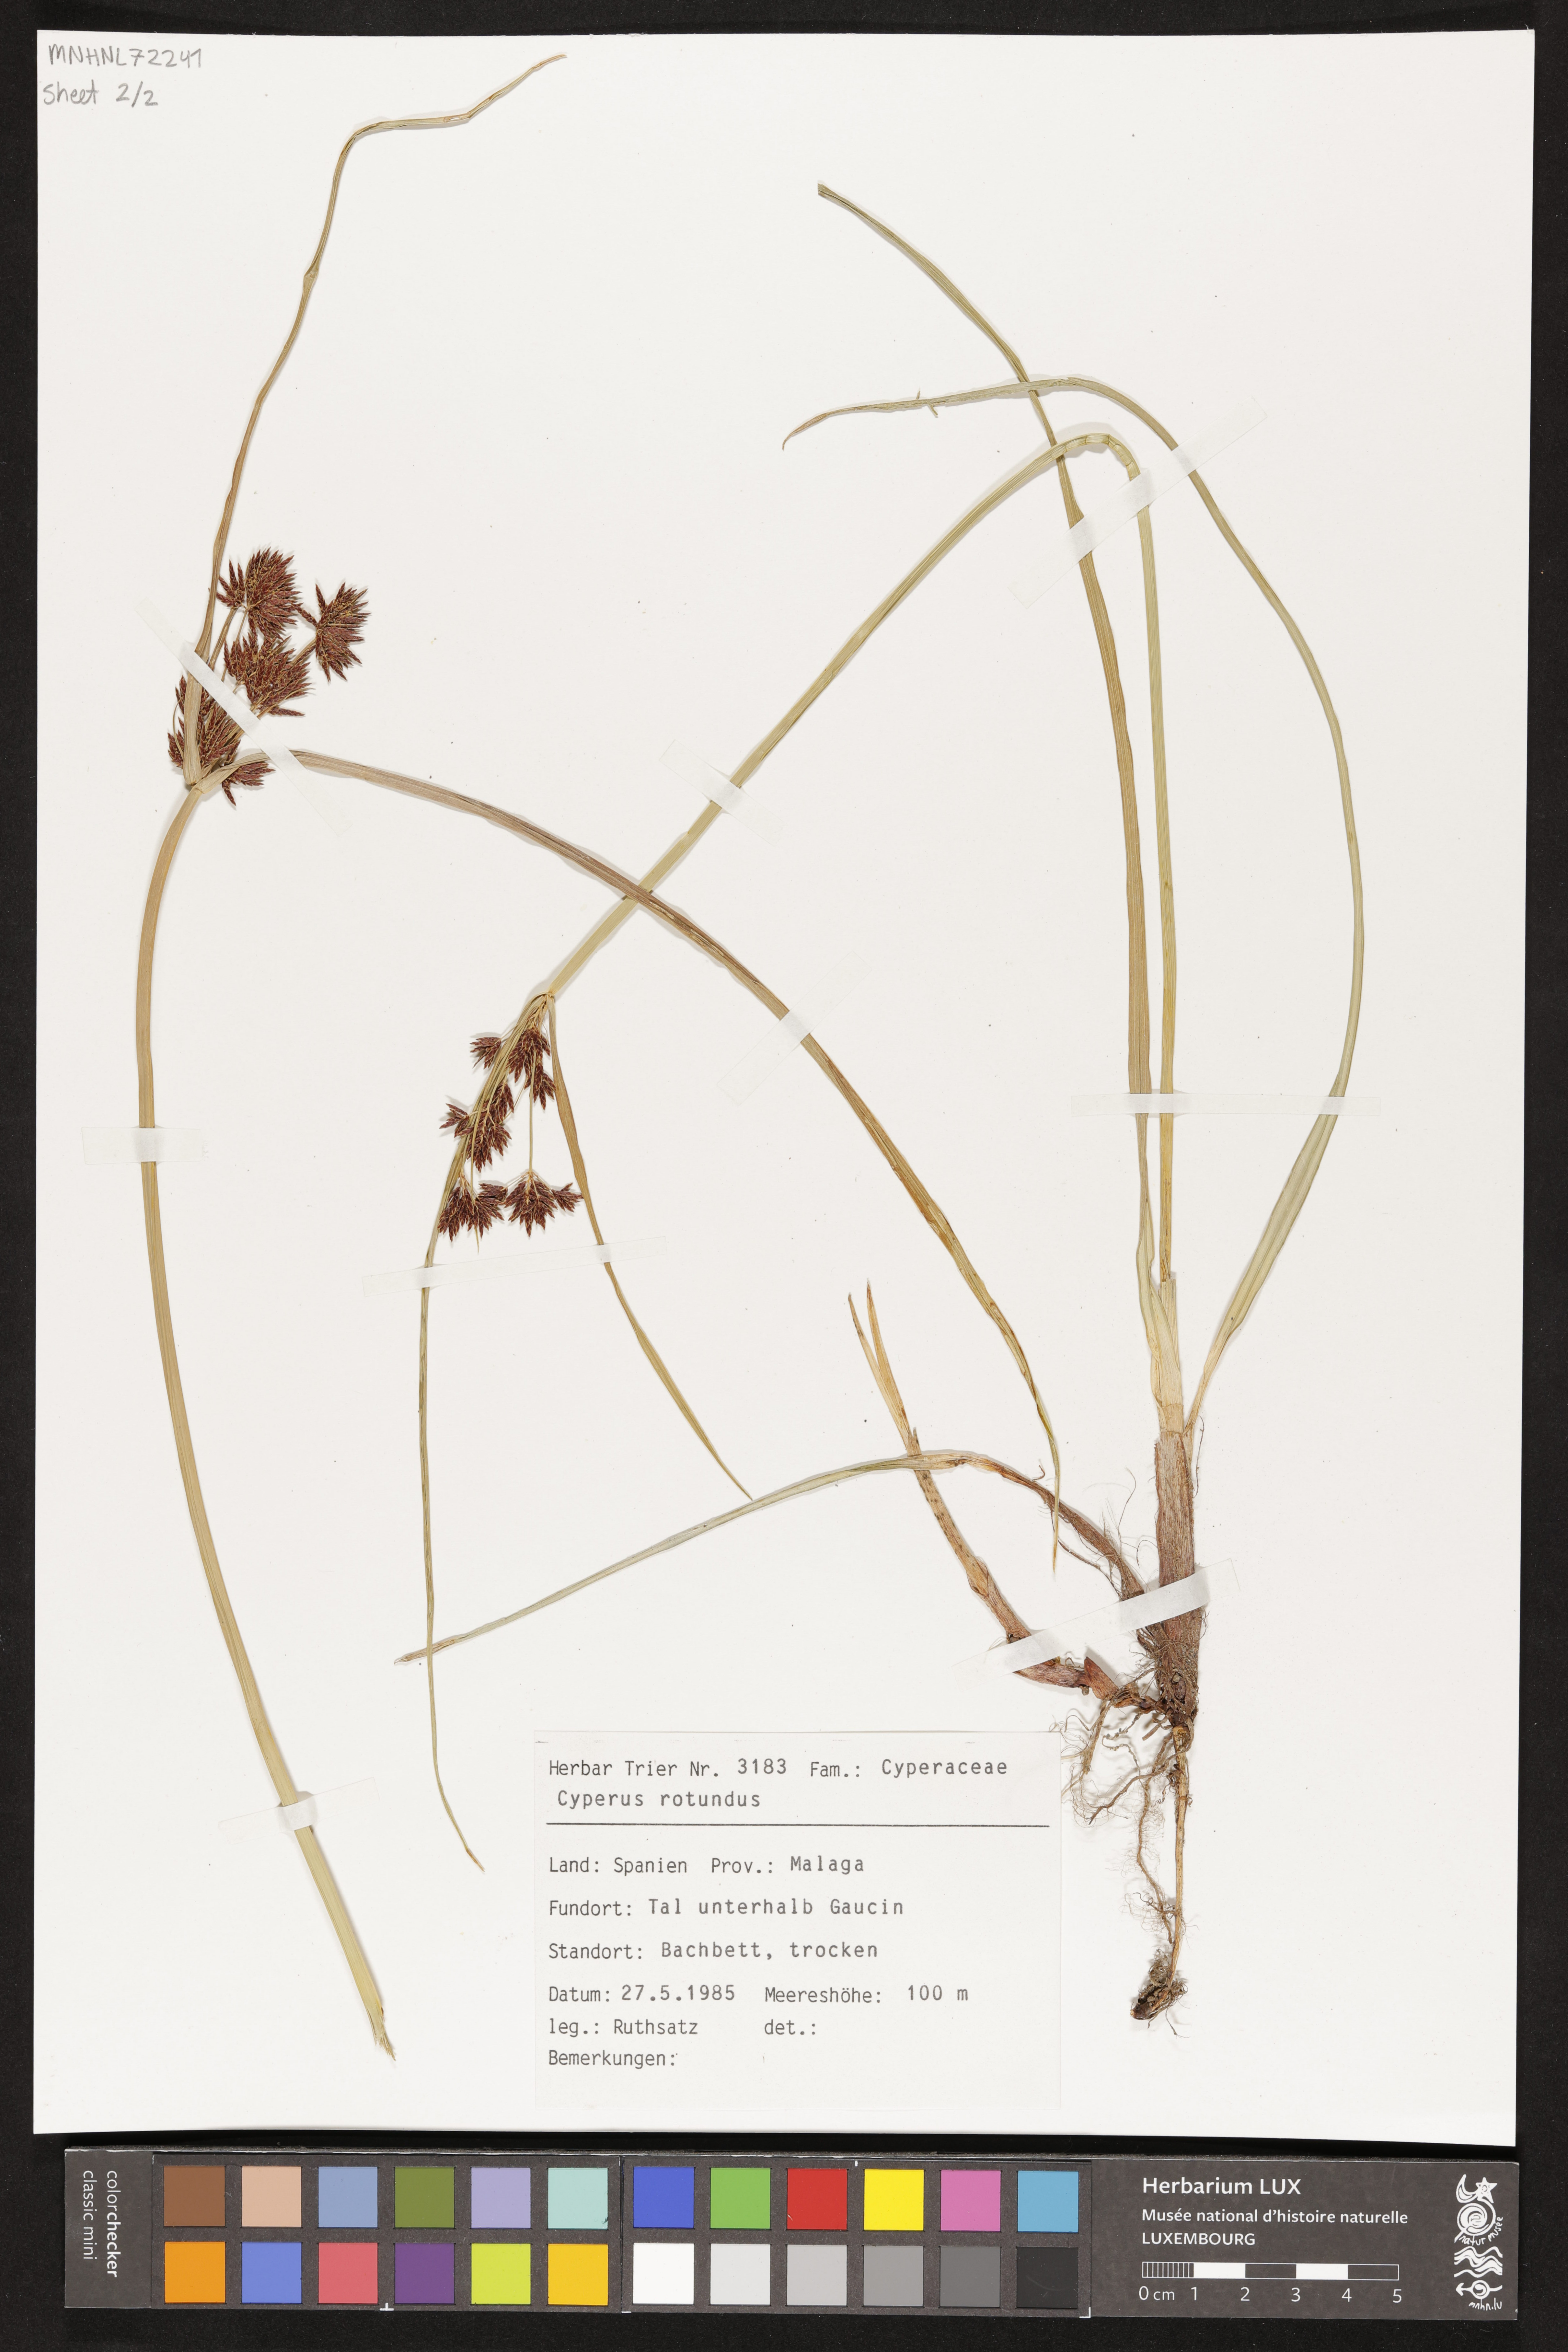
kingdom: Plantae
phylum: Tracheophyta
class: Liliopsida
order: Poales
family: Cyperaceae
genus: Cyperus
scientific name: Cyperus rotundus
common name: Nutgrass
